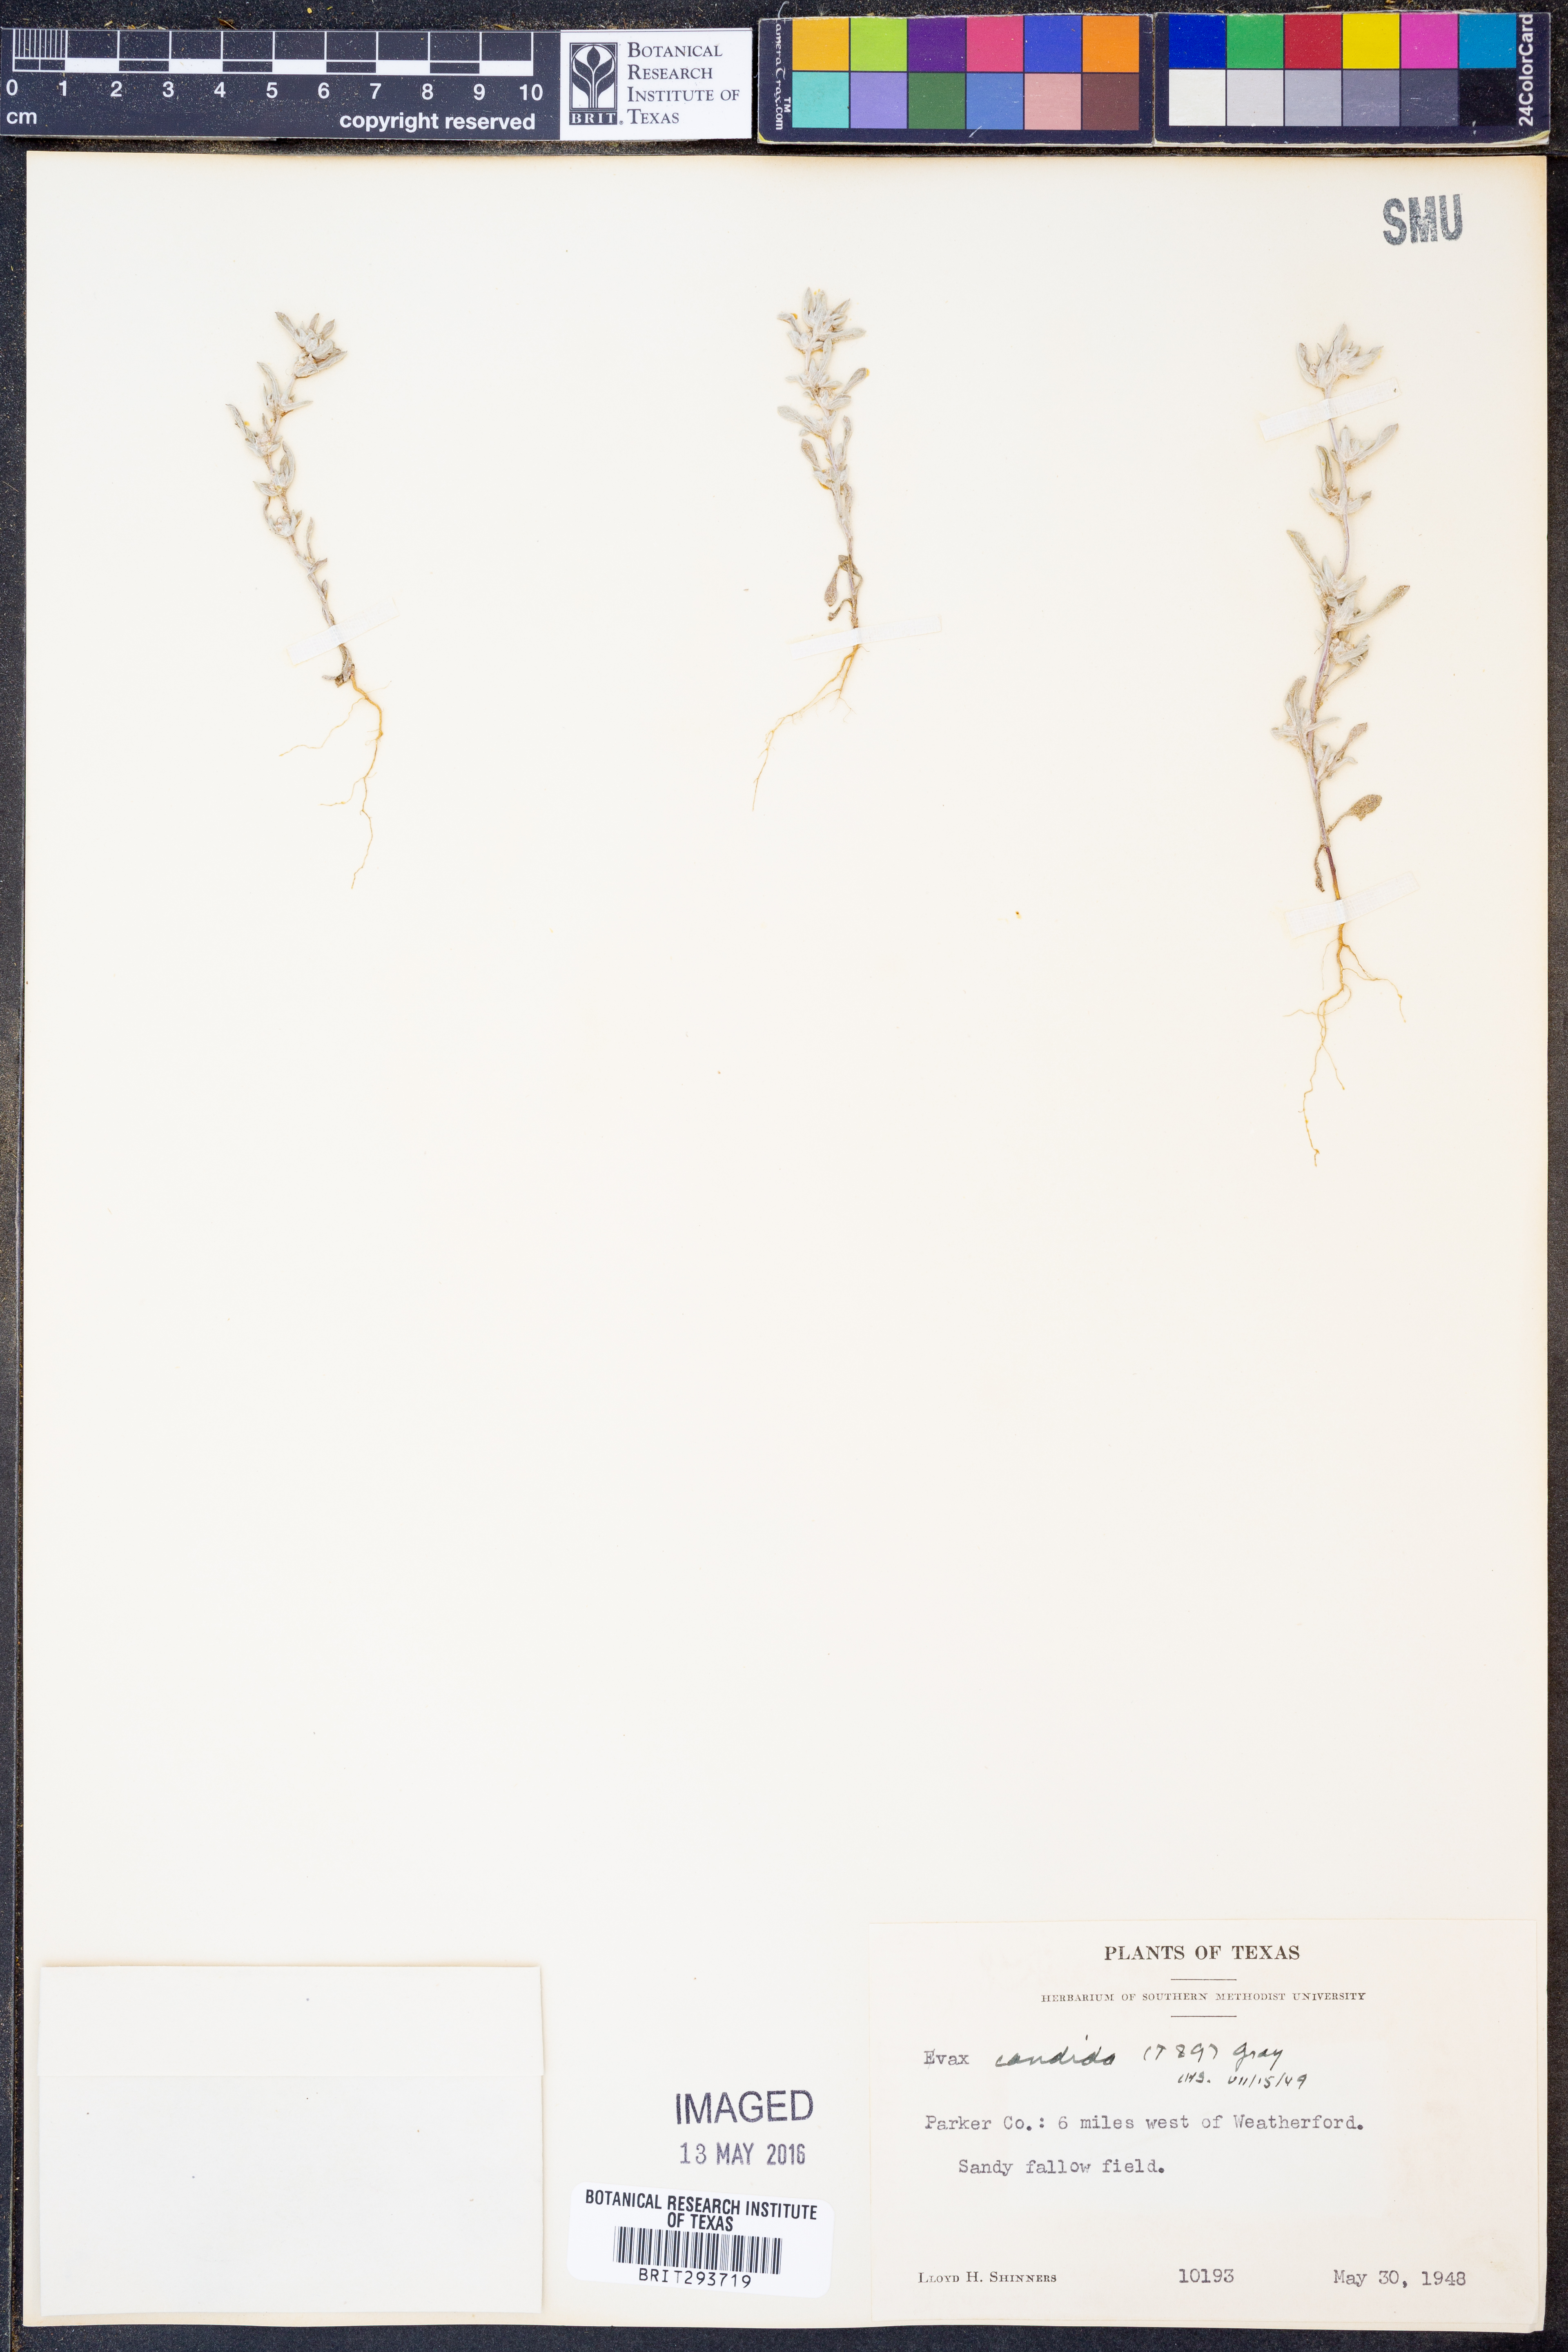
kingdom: Plantae
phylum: Tracheophyta
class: Magnoliopsida
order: Asterales
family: Asteraceae
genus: Diaperia
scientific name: Diaperia candida
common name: Silver rabbit-tobacco
